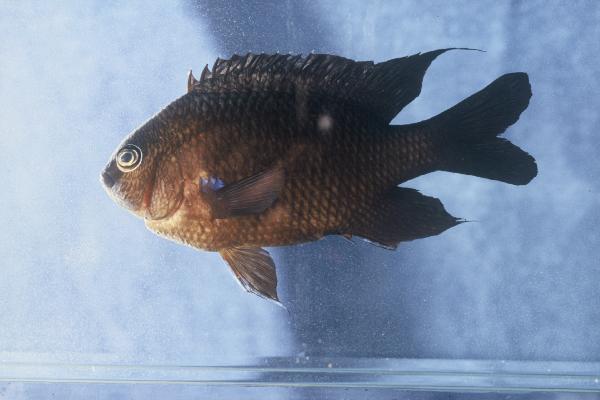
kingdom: Animalia
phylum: Chordata
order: Perciformes
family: Pomacentridae
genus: Abudefduf
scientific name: Abudefduf luridus
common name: Canary damsel
